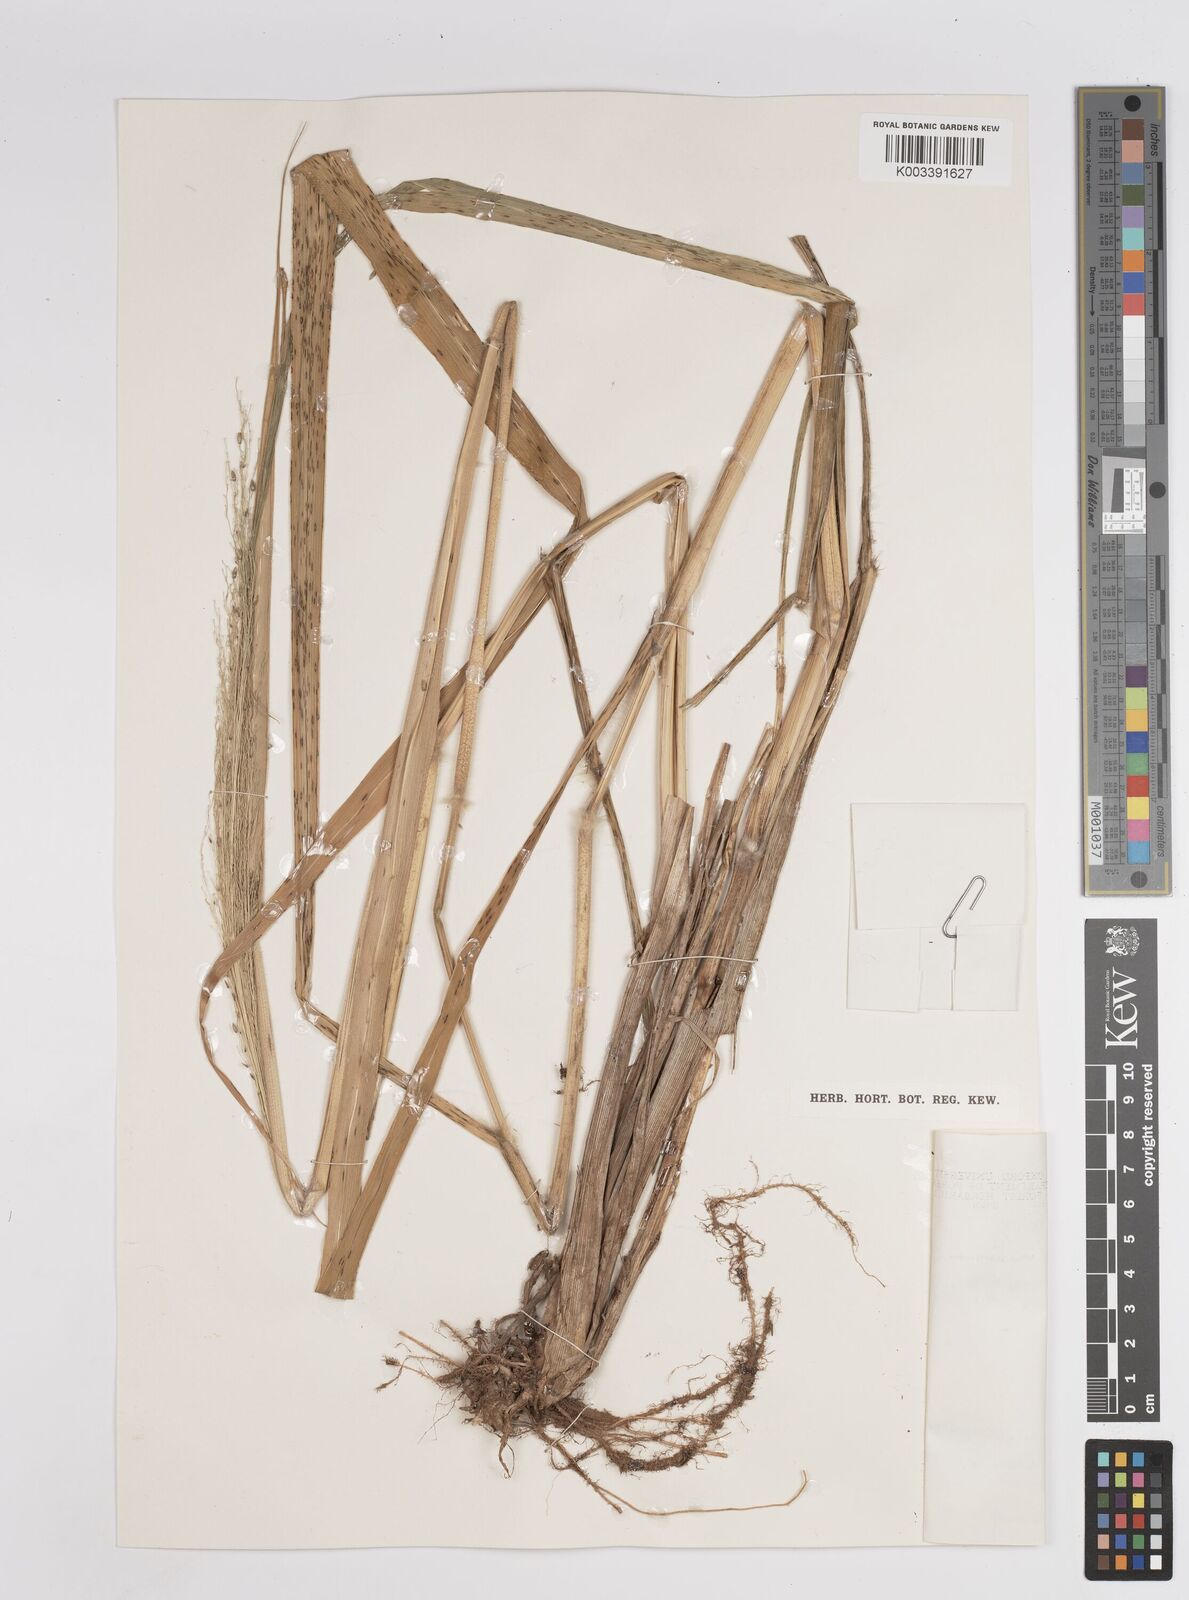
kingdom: Plantae
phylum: Tracheophyta
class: Liliopsida
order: Poales
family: Poaceae
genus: Megathyrsus
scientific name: Megathyrsus maximus
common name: Guineagrass
